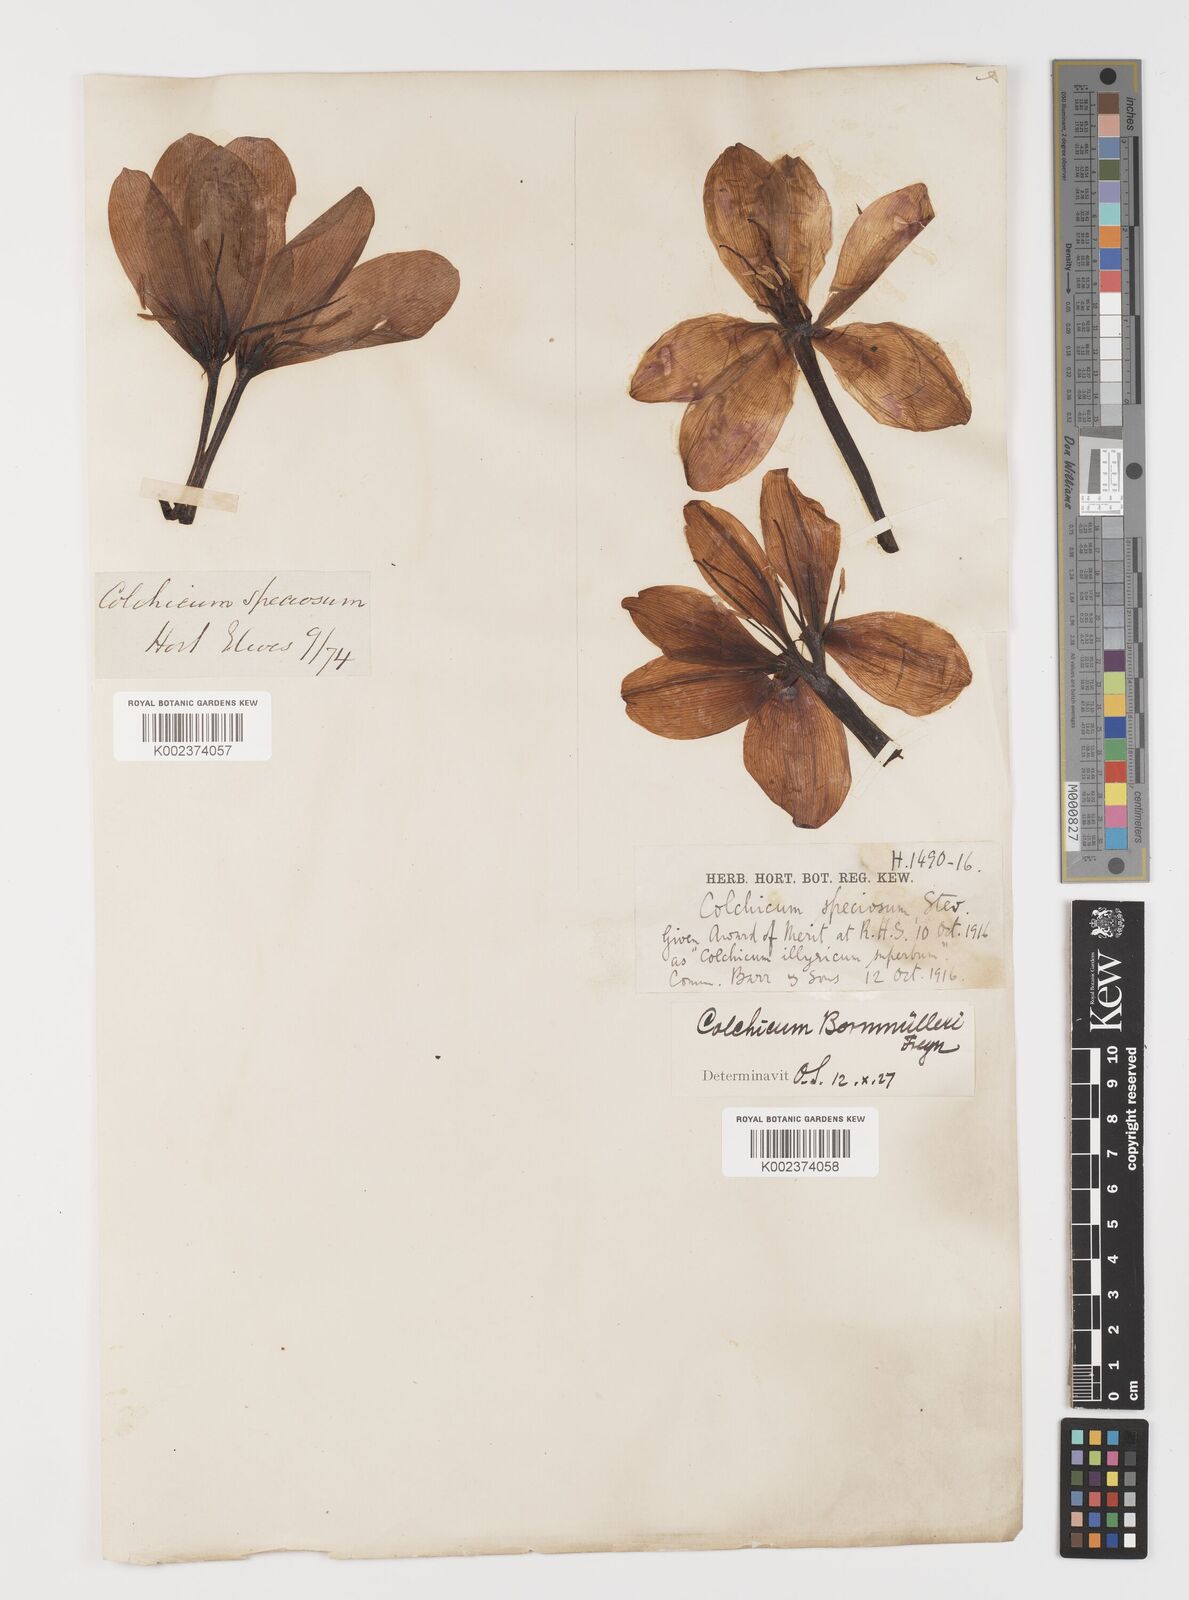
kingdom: Plantae
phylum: Tracheophyta
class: Liliopsida
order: Liliales
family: Colchicaceae
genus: Colchicum
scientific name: Colchicum speciosum
